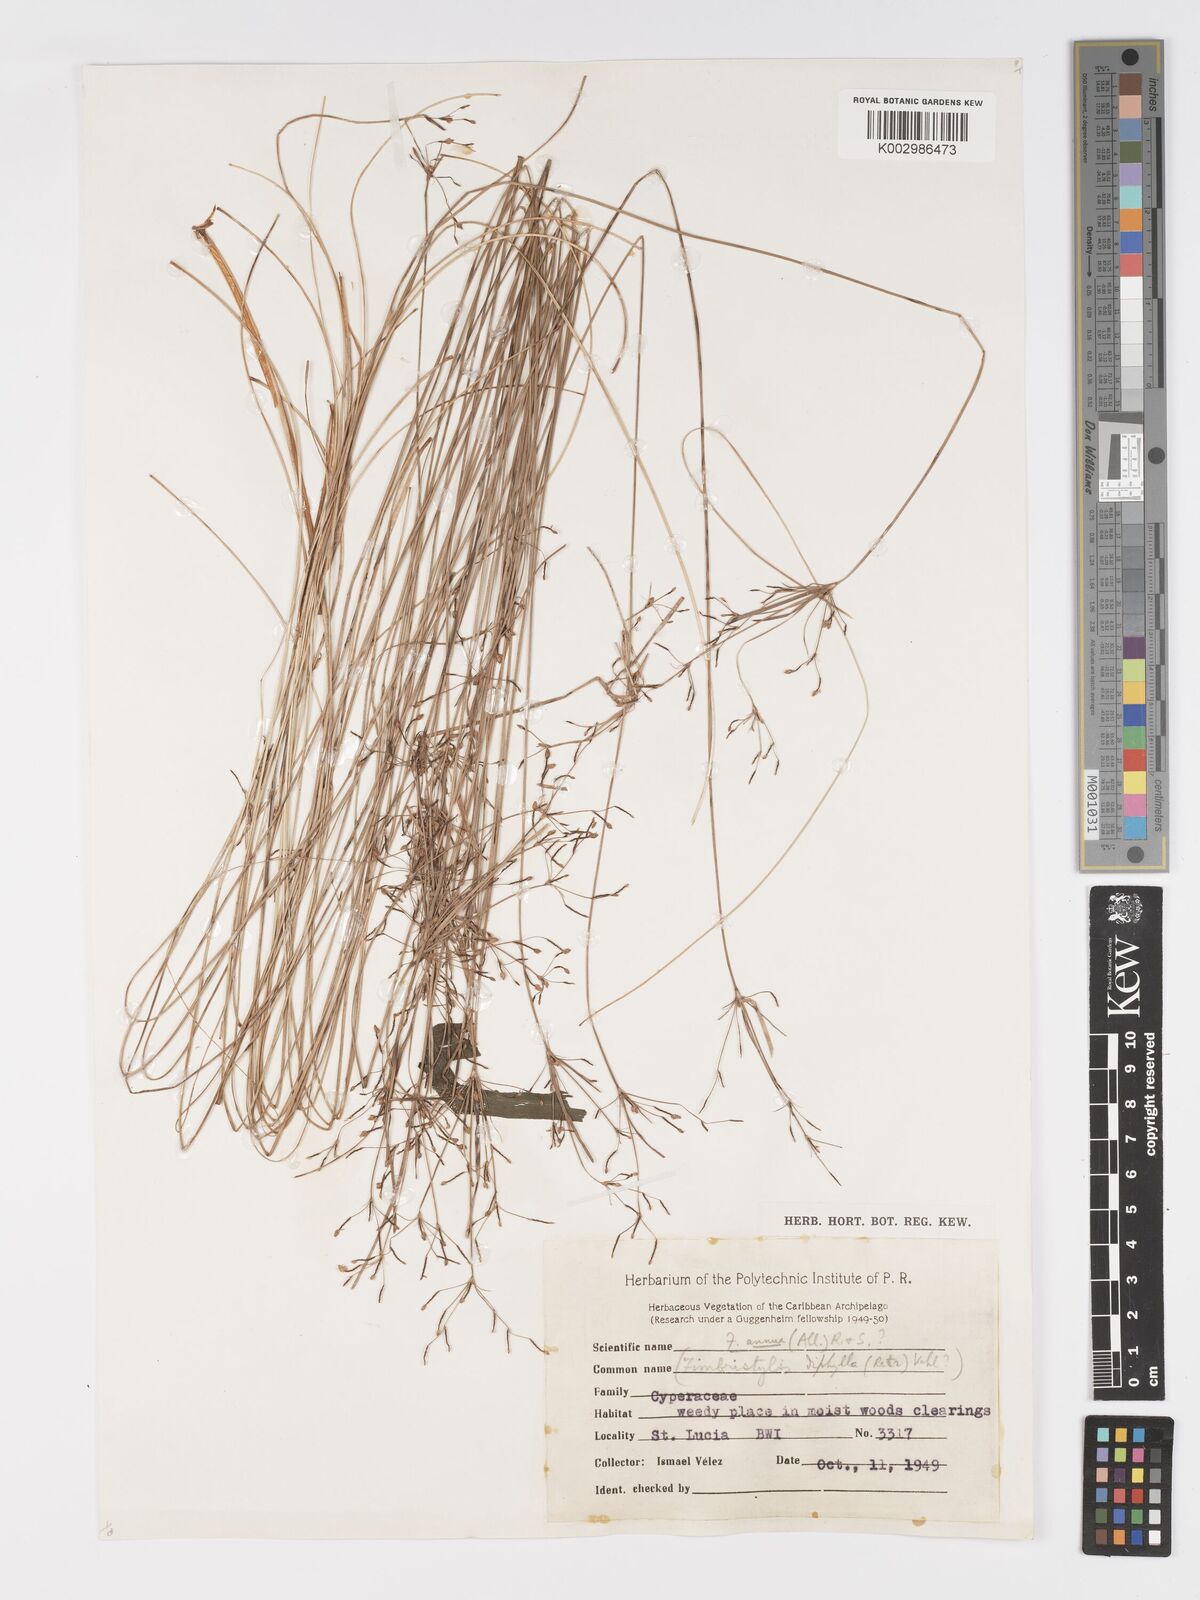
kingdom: Plantae
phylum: Tracheophyta
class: Liliopsida
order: Poales
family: Cyperaceae
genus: Fimbristylis
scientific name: Fimbristylis dichotoma
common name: Forked fimbry
